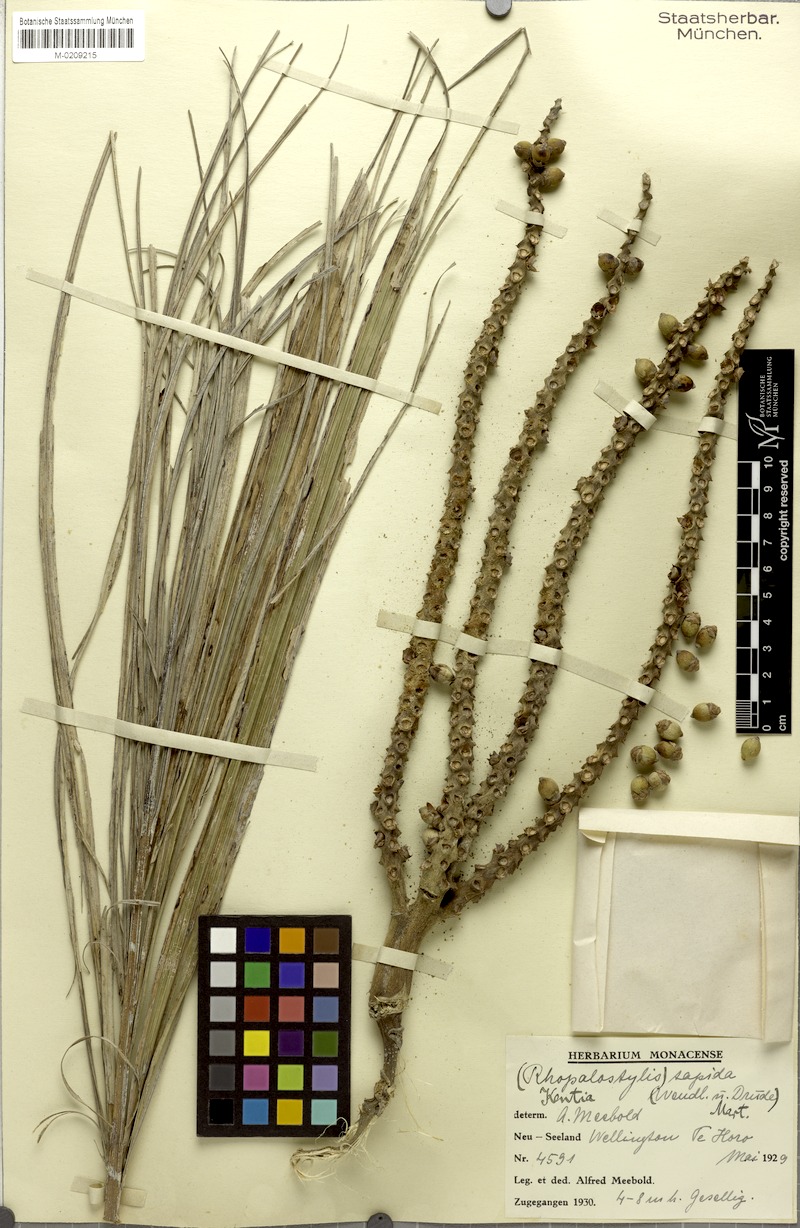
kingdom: Plantae
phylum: Tracheophyta
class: Liliopsida
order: Arecales
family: Arecaceae
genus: Rhopalostylis
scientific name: Rhopalostylis sapida
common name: Feather-duster palm
